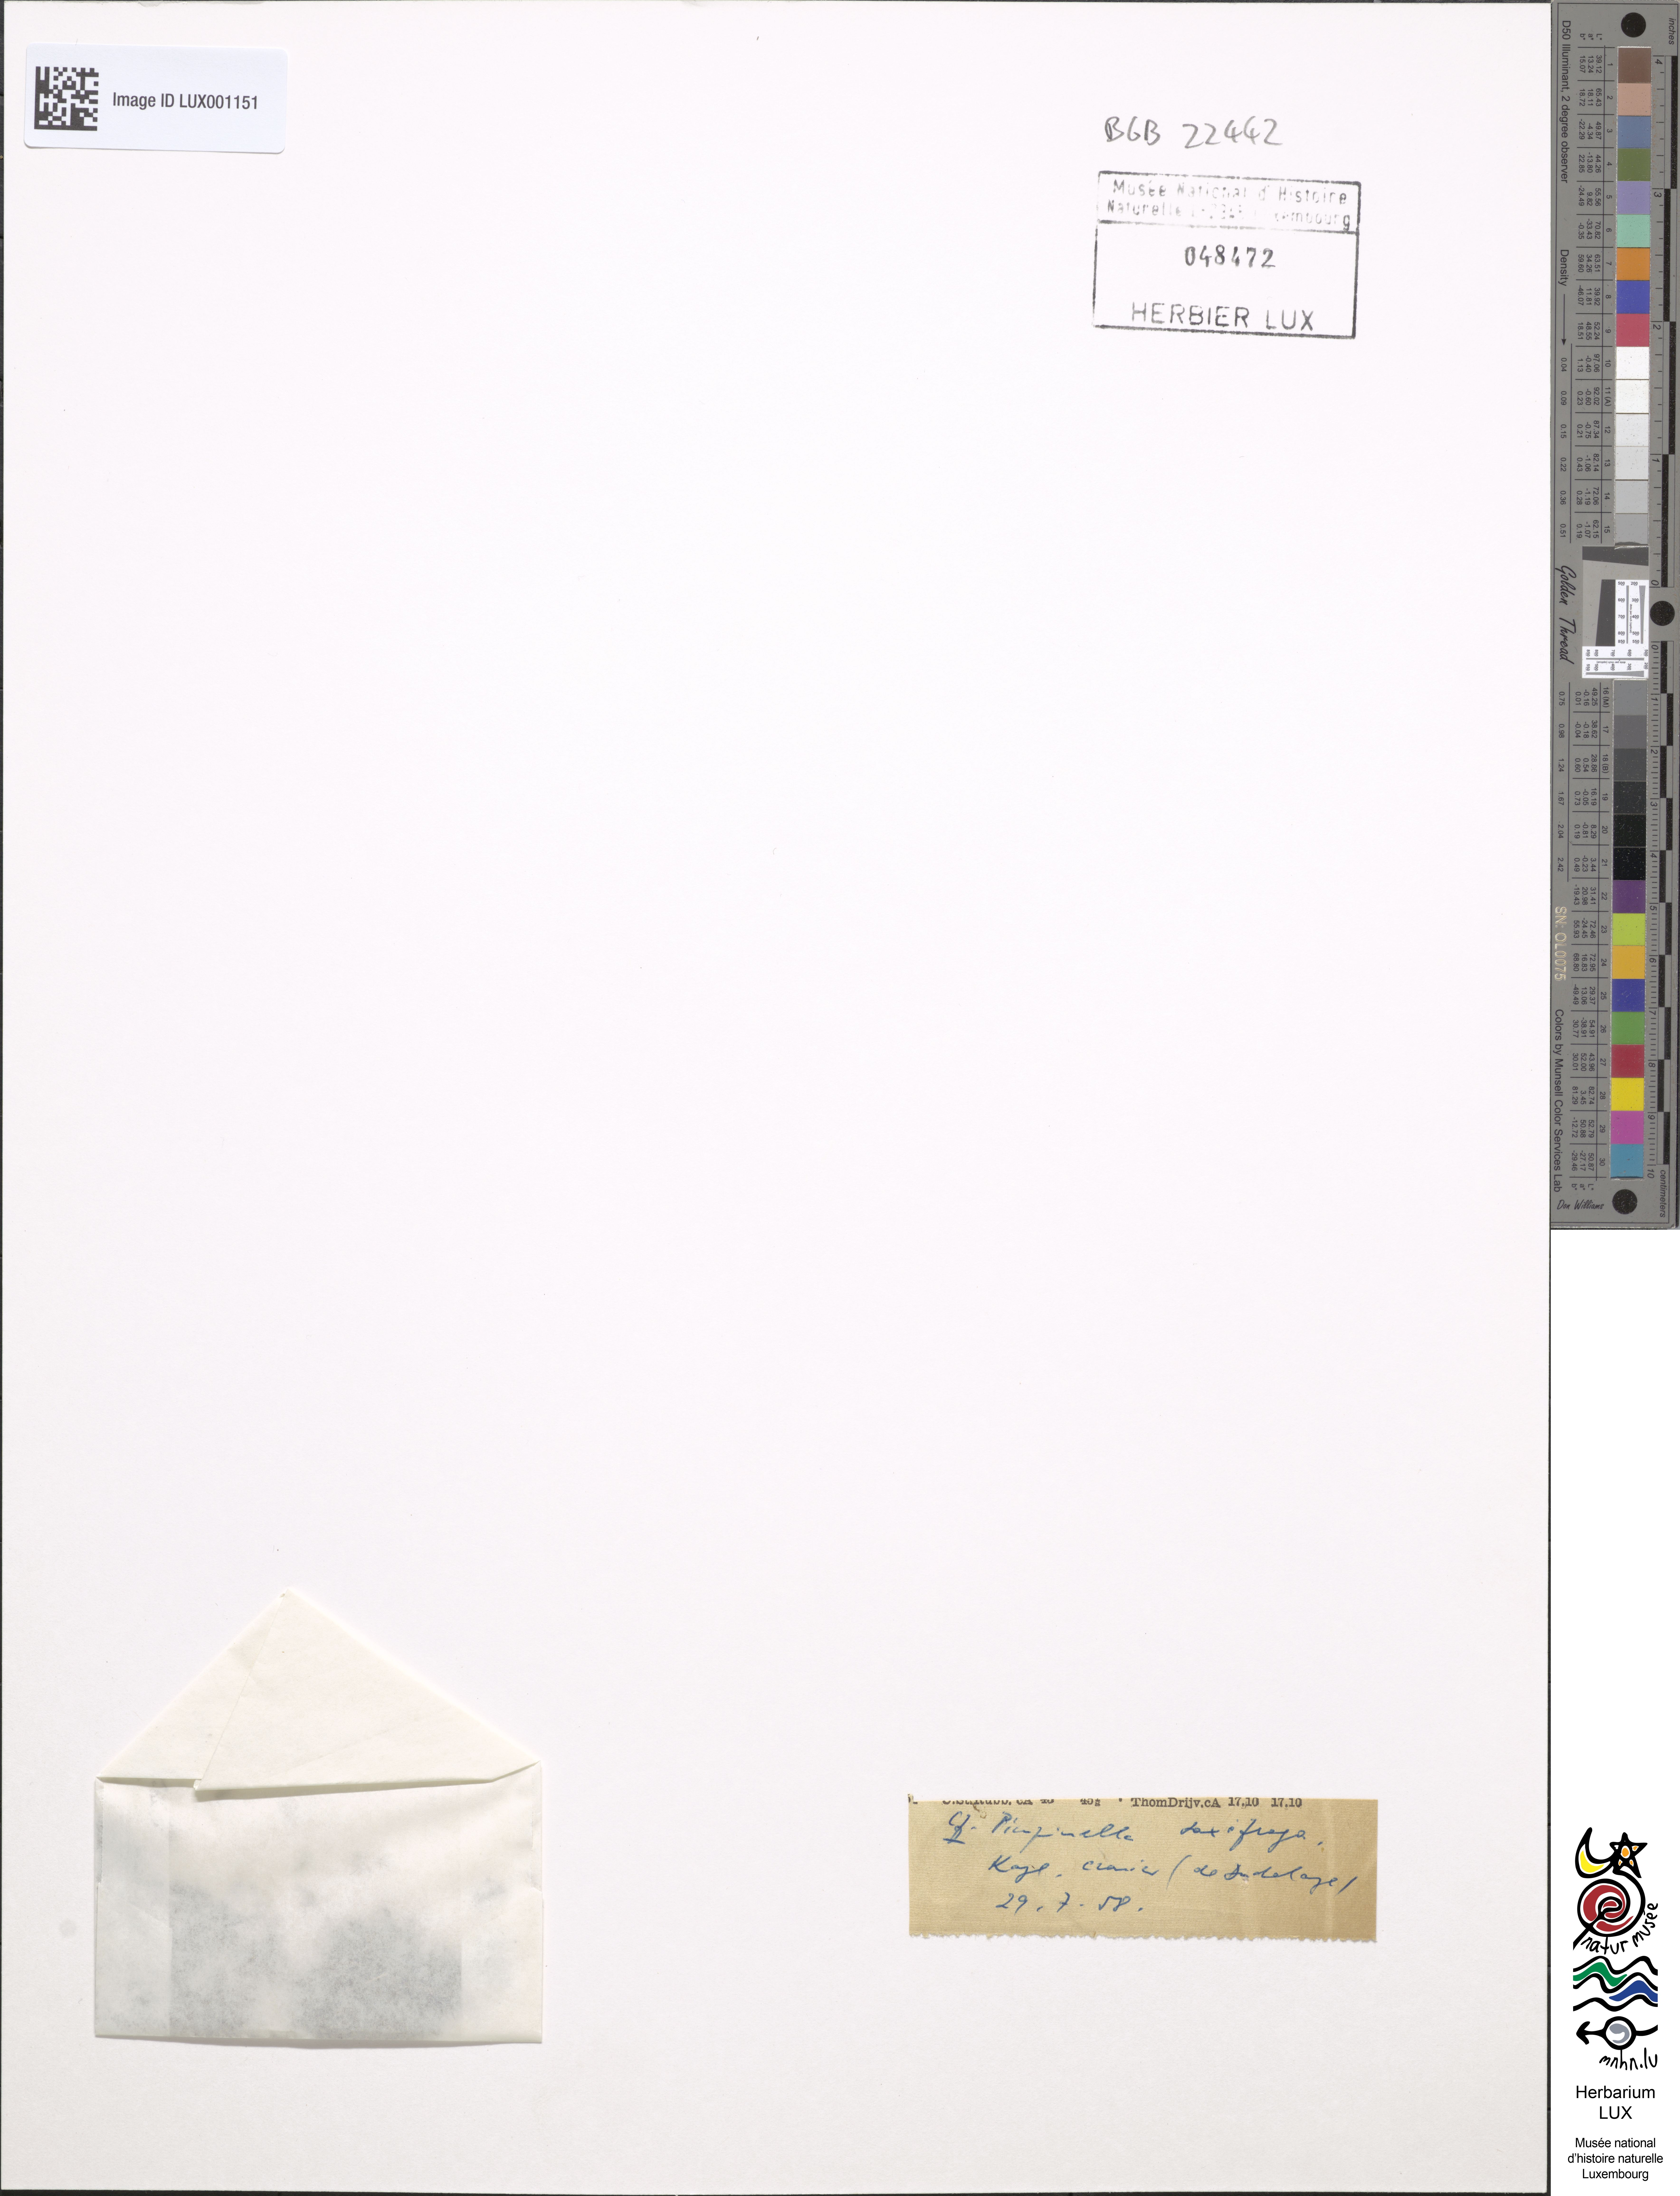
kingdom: Plantae
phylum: Tracheophyta
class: Magnoliopsida
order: Apiales
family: Apiaceae
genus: Pimpinella
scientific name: Pimpinella saxifraga
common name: Burnet-saxifrage
